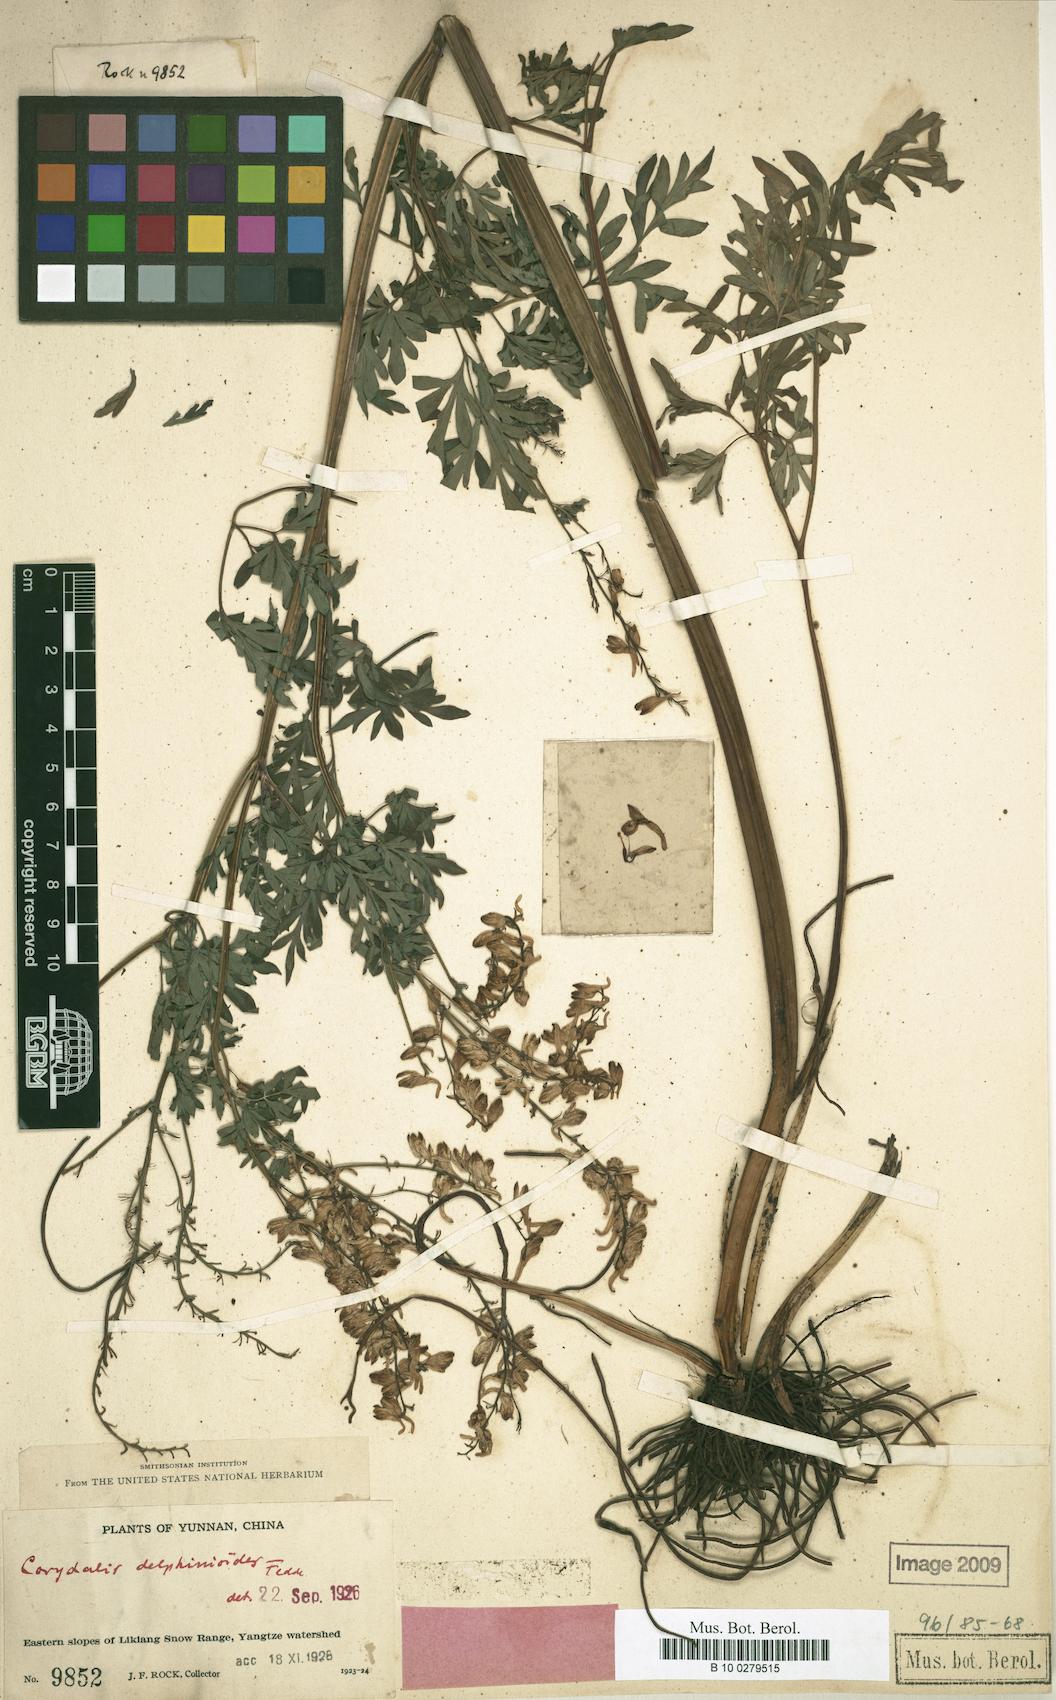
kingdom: Plantae
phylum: Tracheophyta
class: Magnoliopsida
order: Ranunculales
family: Papaveraceae
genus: Corydalis
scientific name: Corydalis delphinioides
